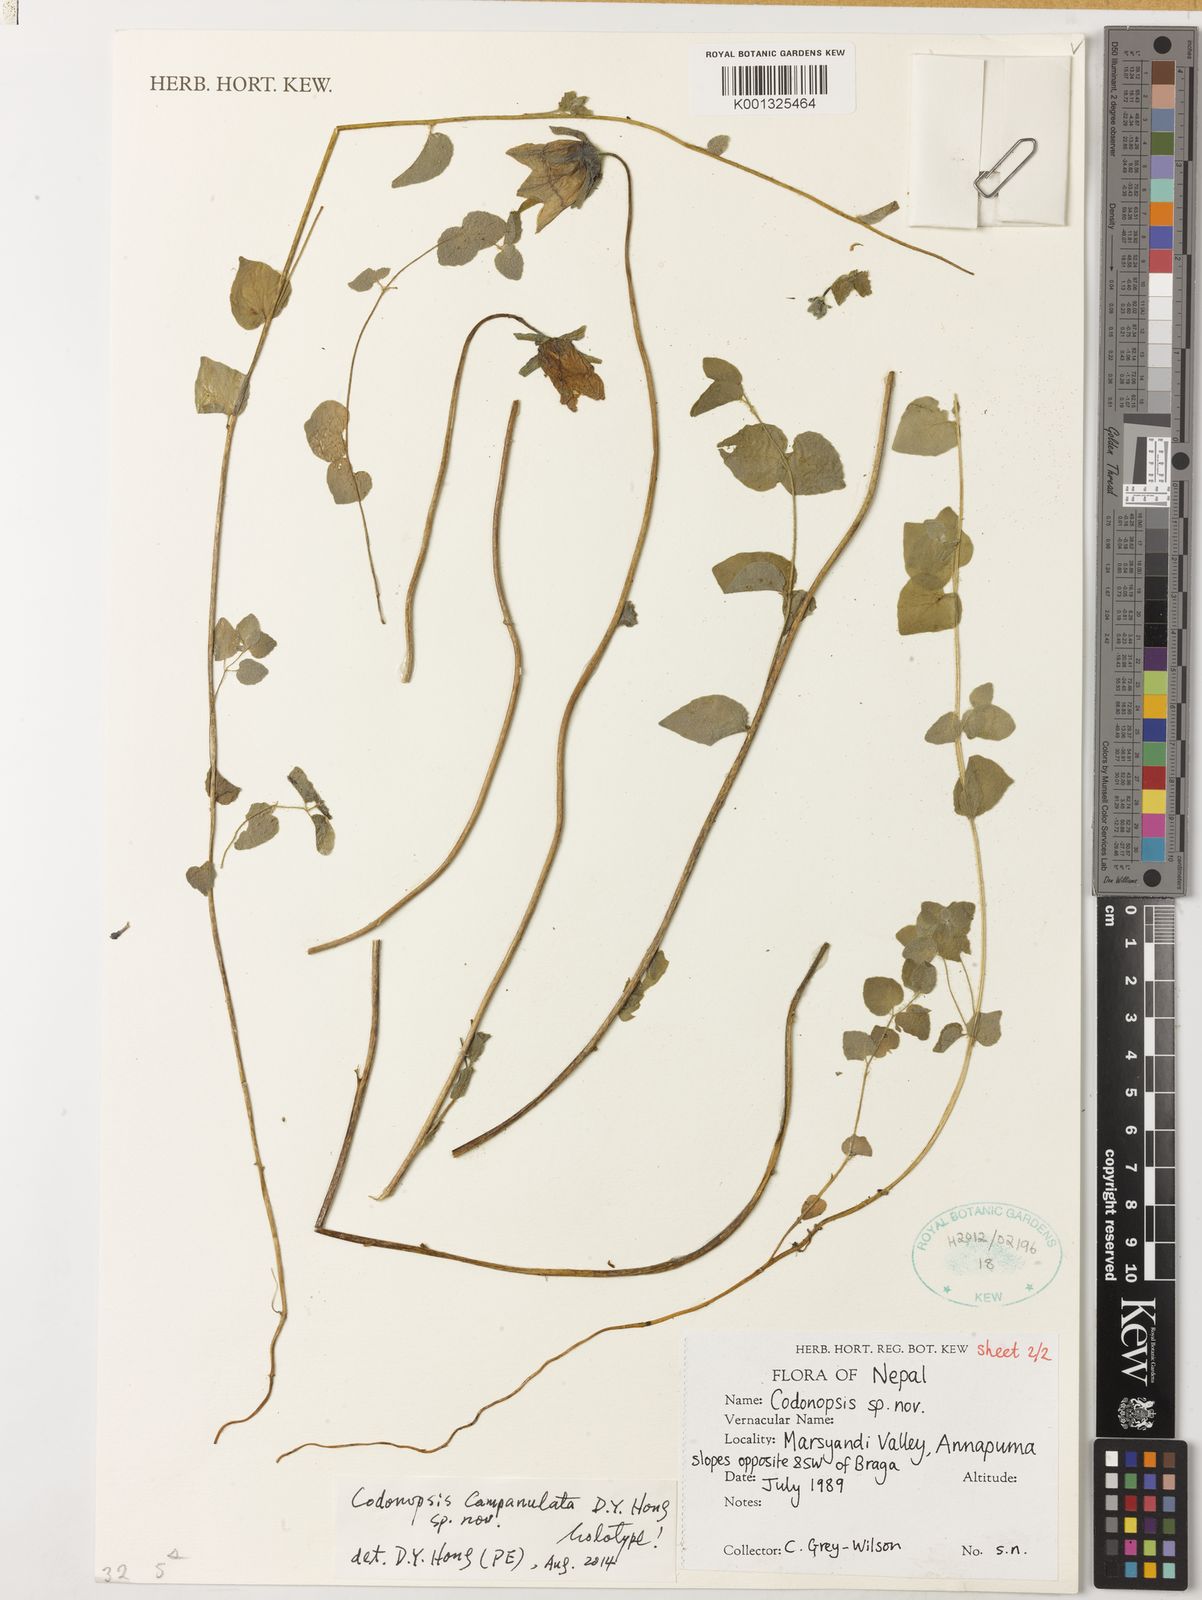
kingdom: Plantae
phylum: Tracheophyta
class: Magnoliopsida
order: Asterales
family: Campanulaceae
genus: Codonopsis
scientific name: Codonopsis campanulata
